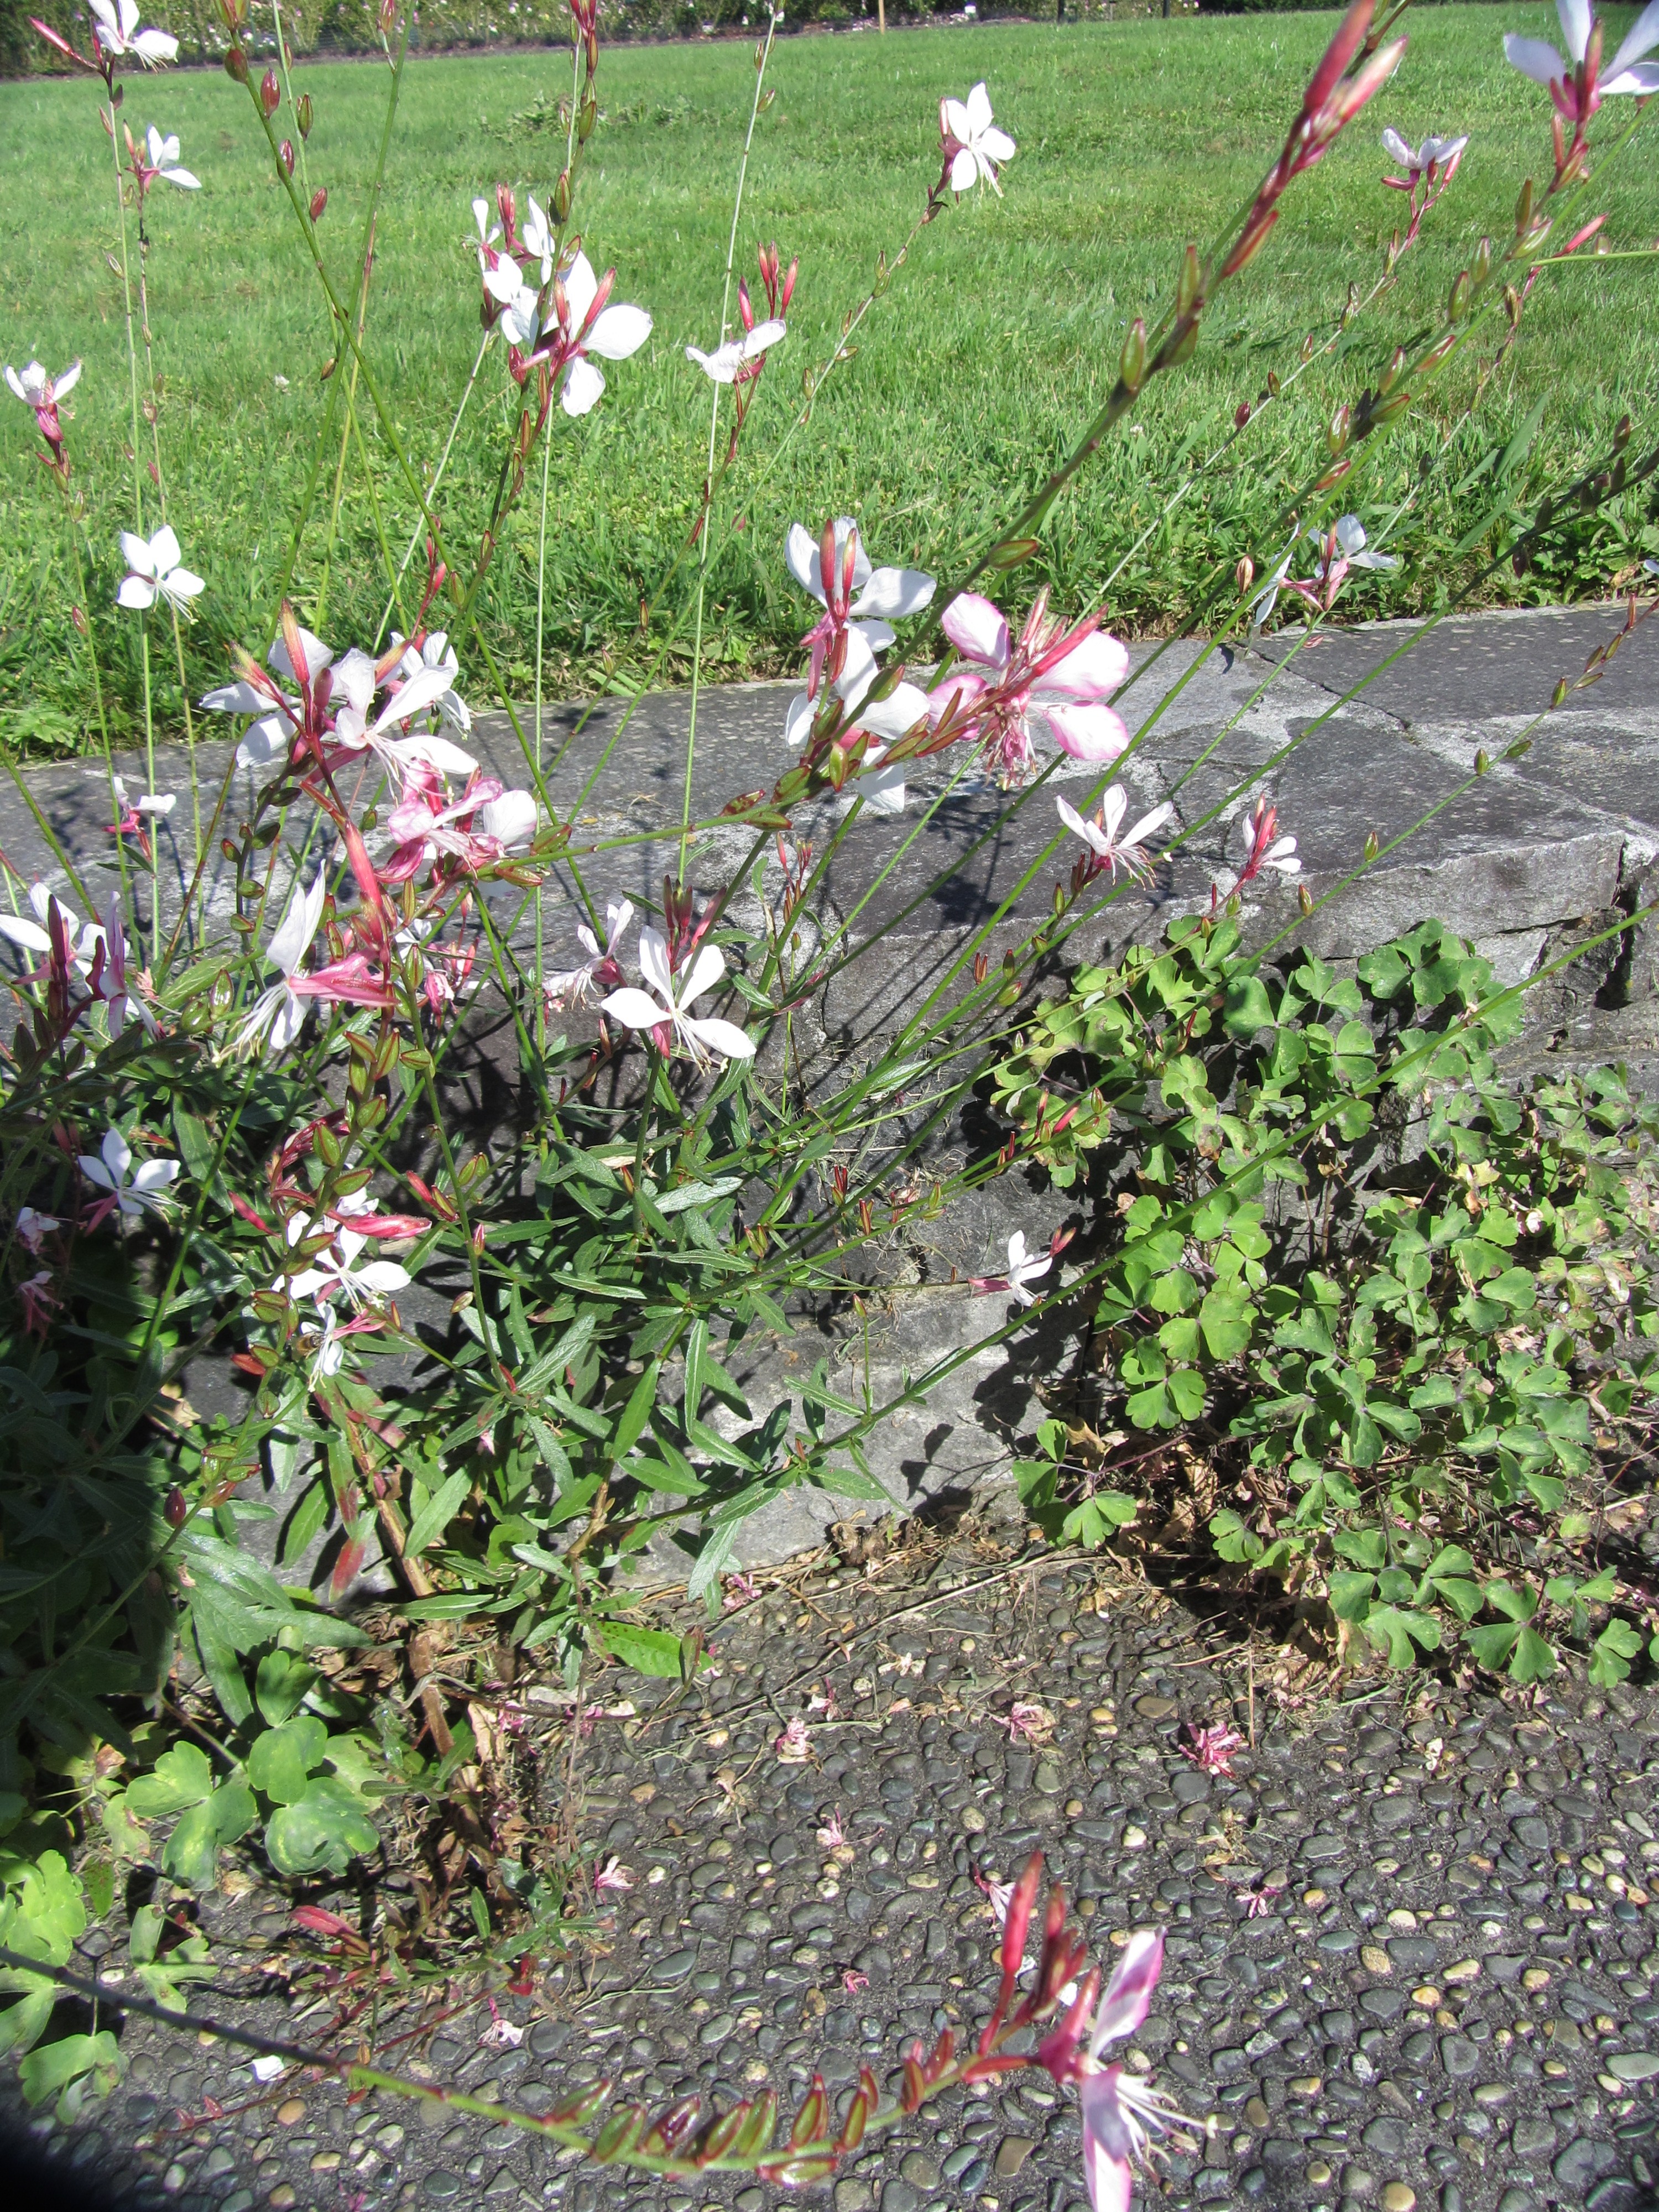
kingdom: Plantae
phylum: Tracheophyta
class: Magnoliopsida
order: Myrtales
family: Onagraceae
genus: Oenothera
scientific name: Oenothera lindheimeri
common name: Lindheimer's beeblossom
